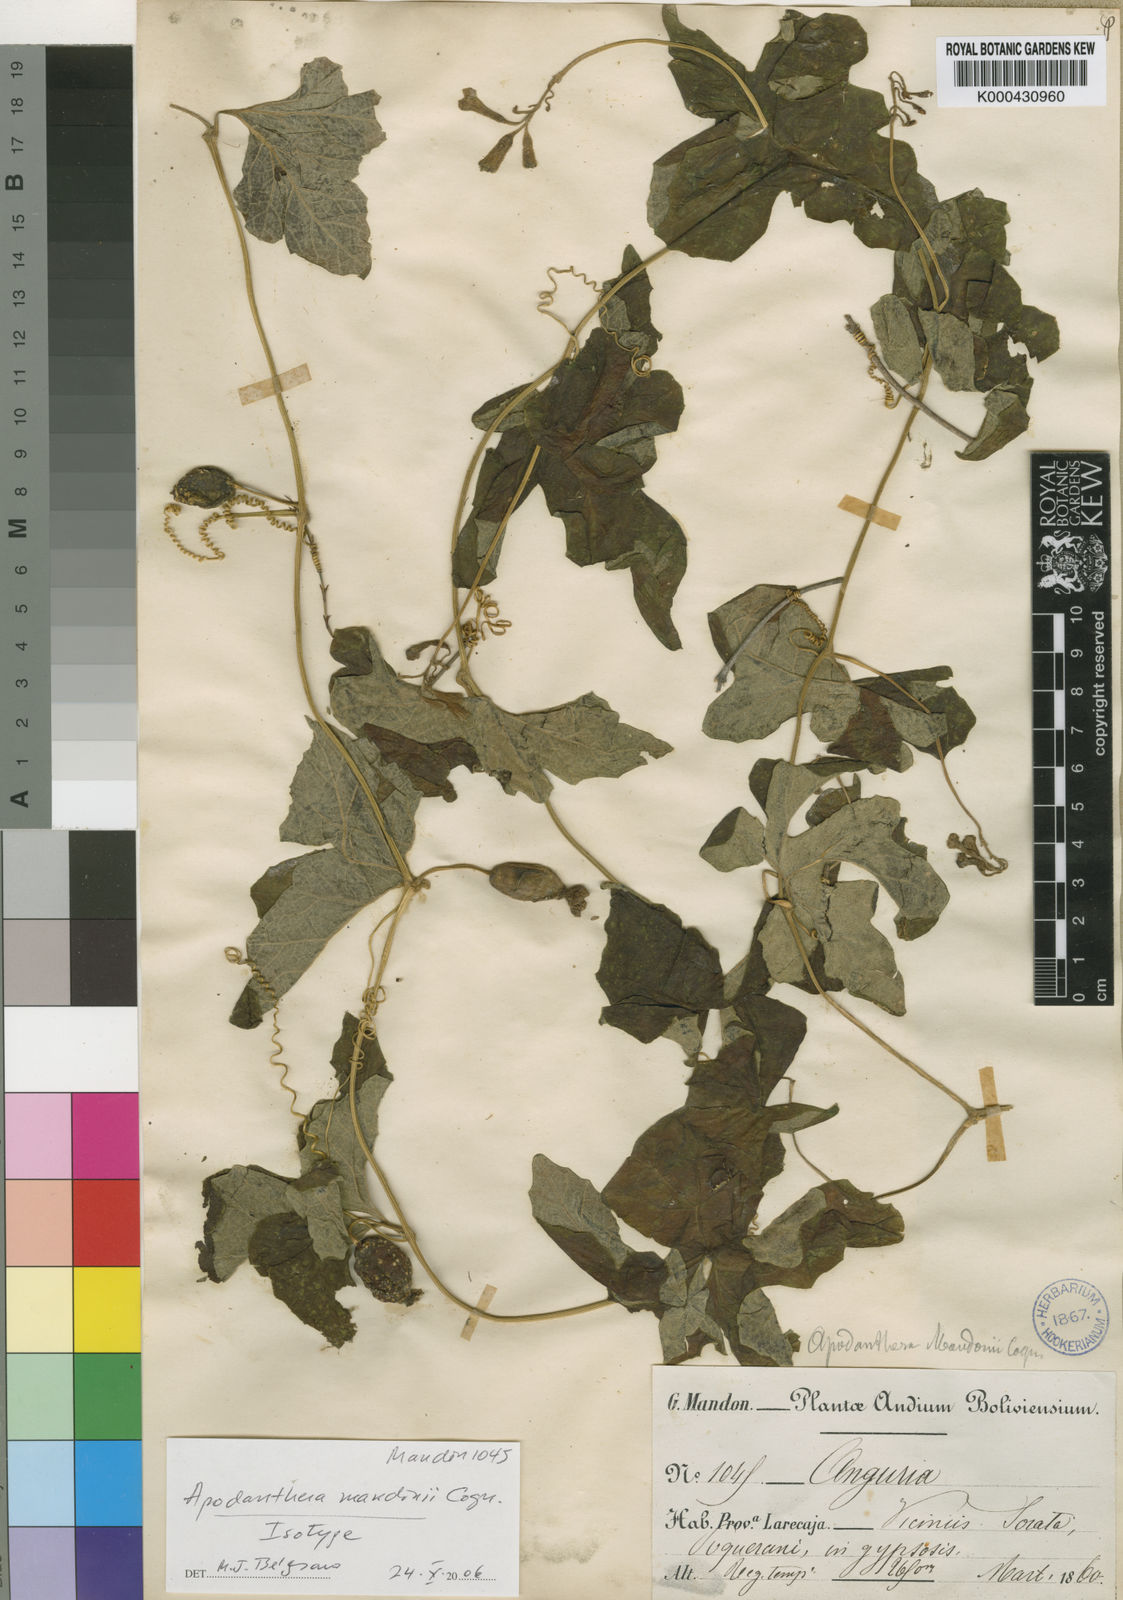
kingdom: Plantae
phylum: Tracheophyta
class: Magnoliopsida
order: Cucurbitales
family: Cucurbitaceae
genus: Apodanthera
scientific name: Apodanthera mandonii
